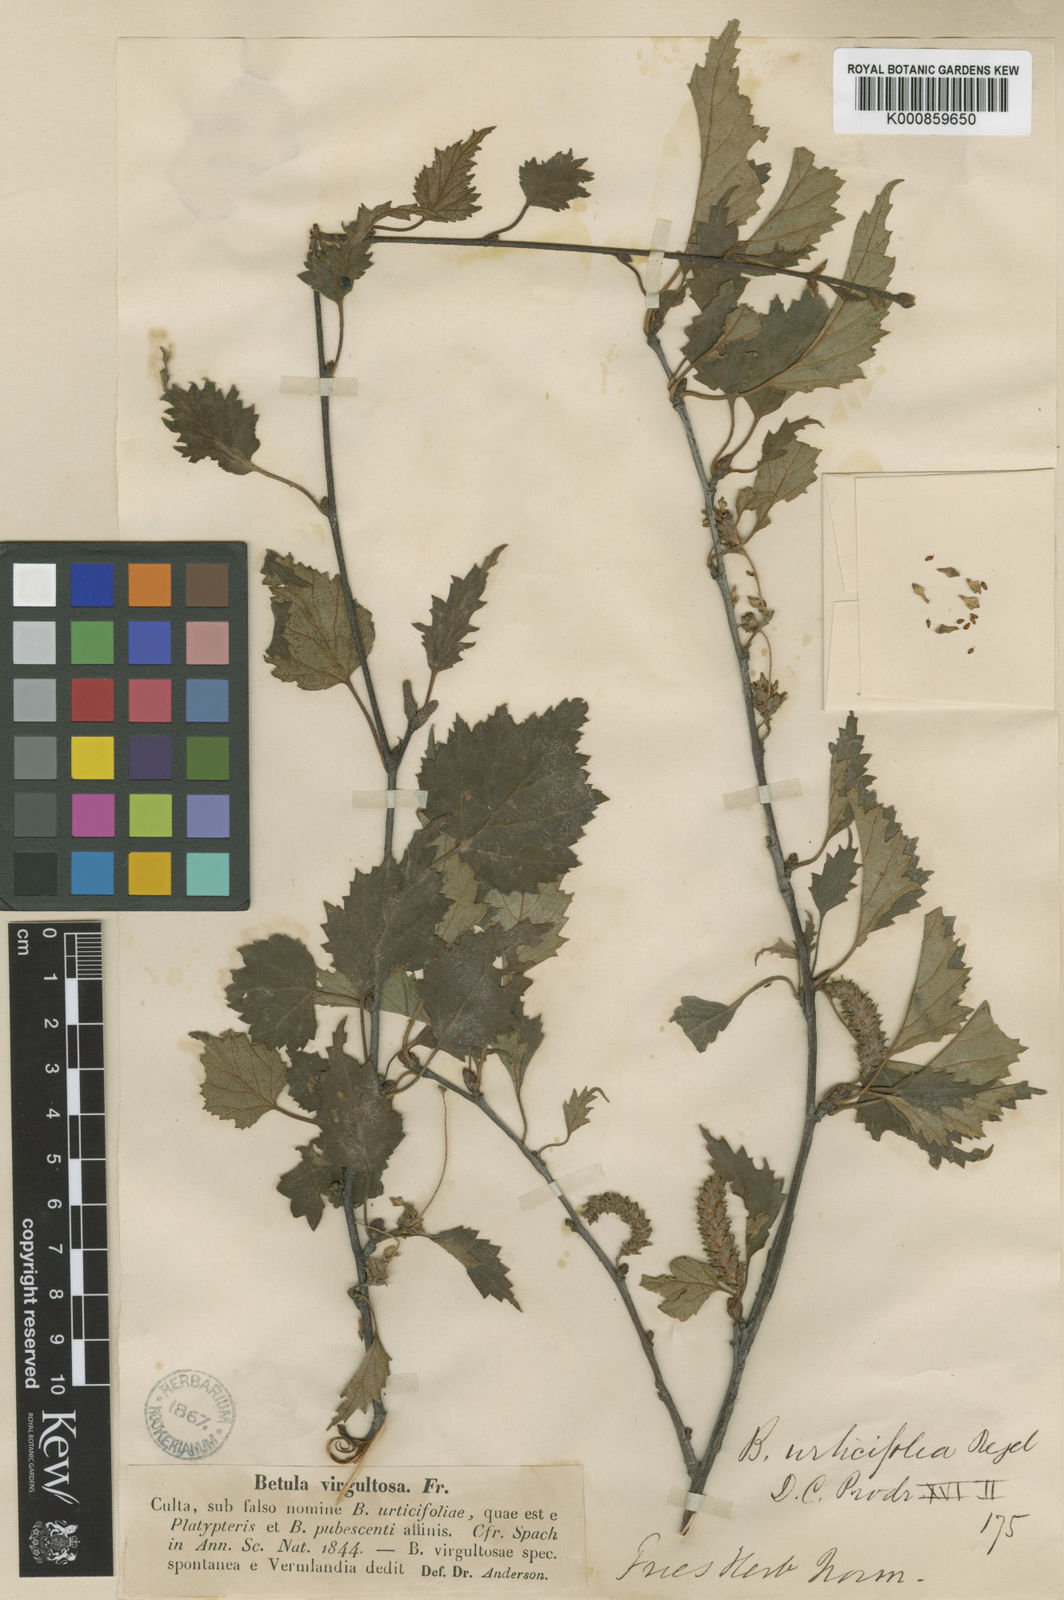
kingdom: Plantae
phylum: Tracheophyta
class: Magnoliopsida
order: Fagales
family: Betulaceae
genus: Betula
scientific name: Betula pubescens
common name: Downy birch
